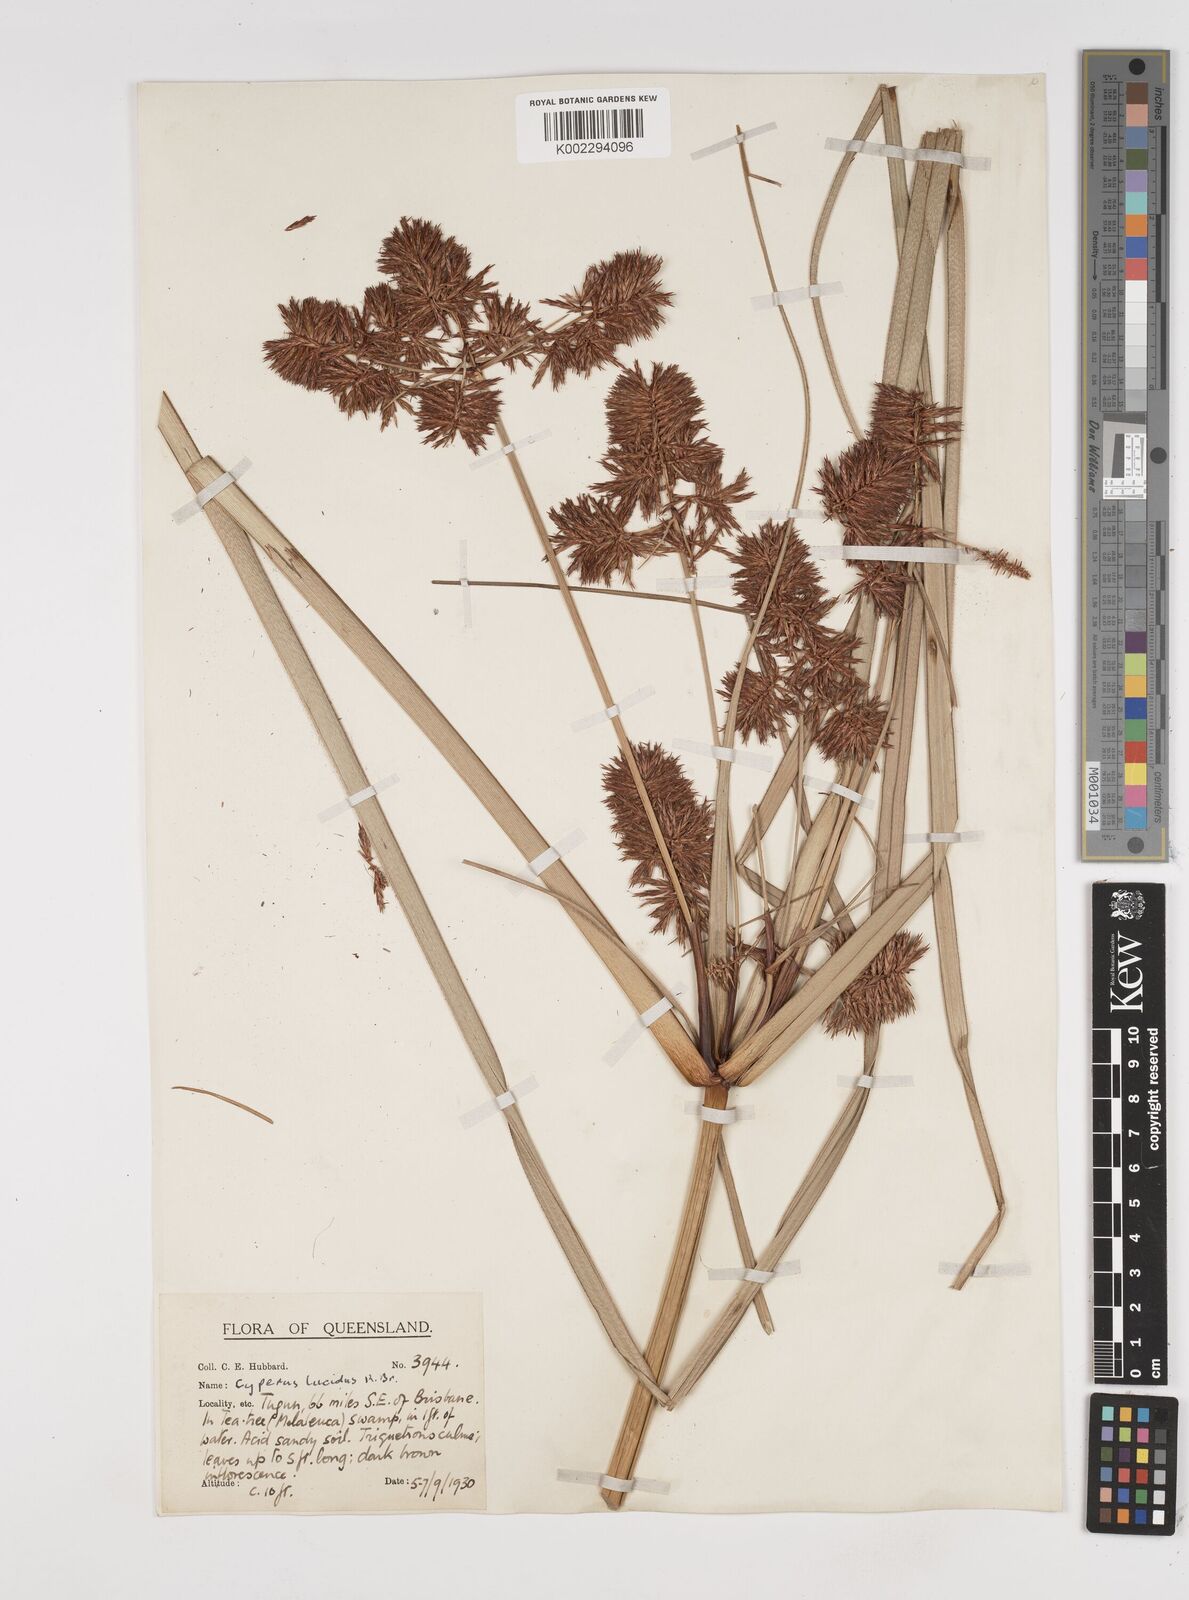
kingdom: Plantae
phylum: Tracheophyta
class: Liliopsida
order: Poales
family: Cyperaceae
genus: Cyperus
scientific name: Cyperus lucidus
